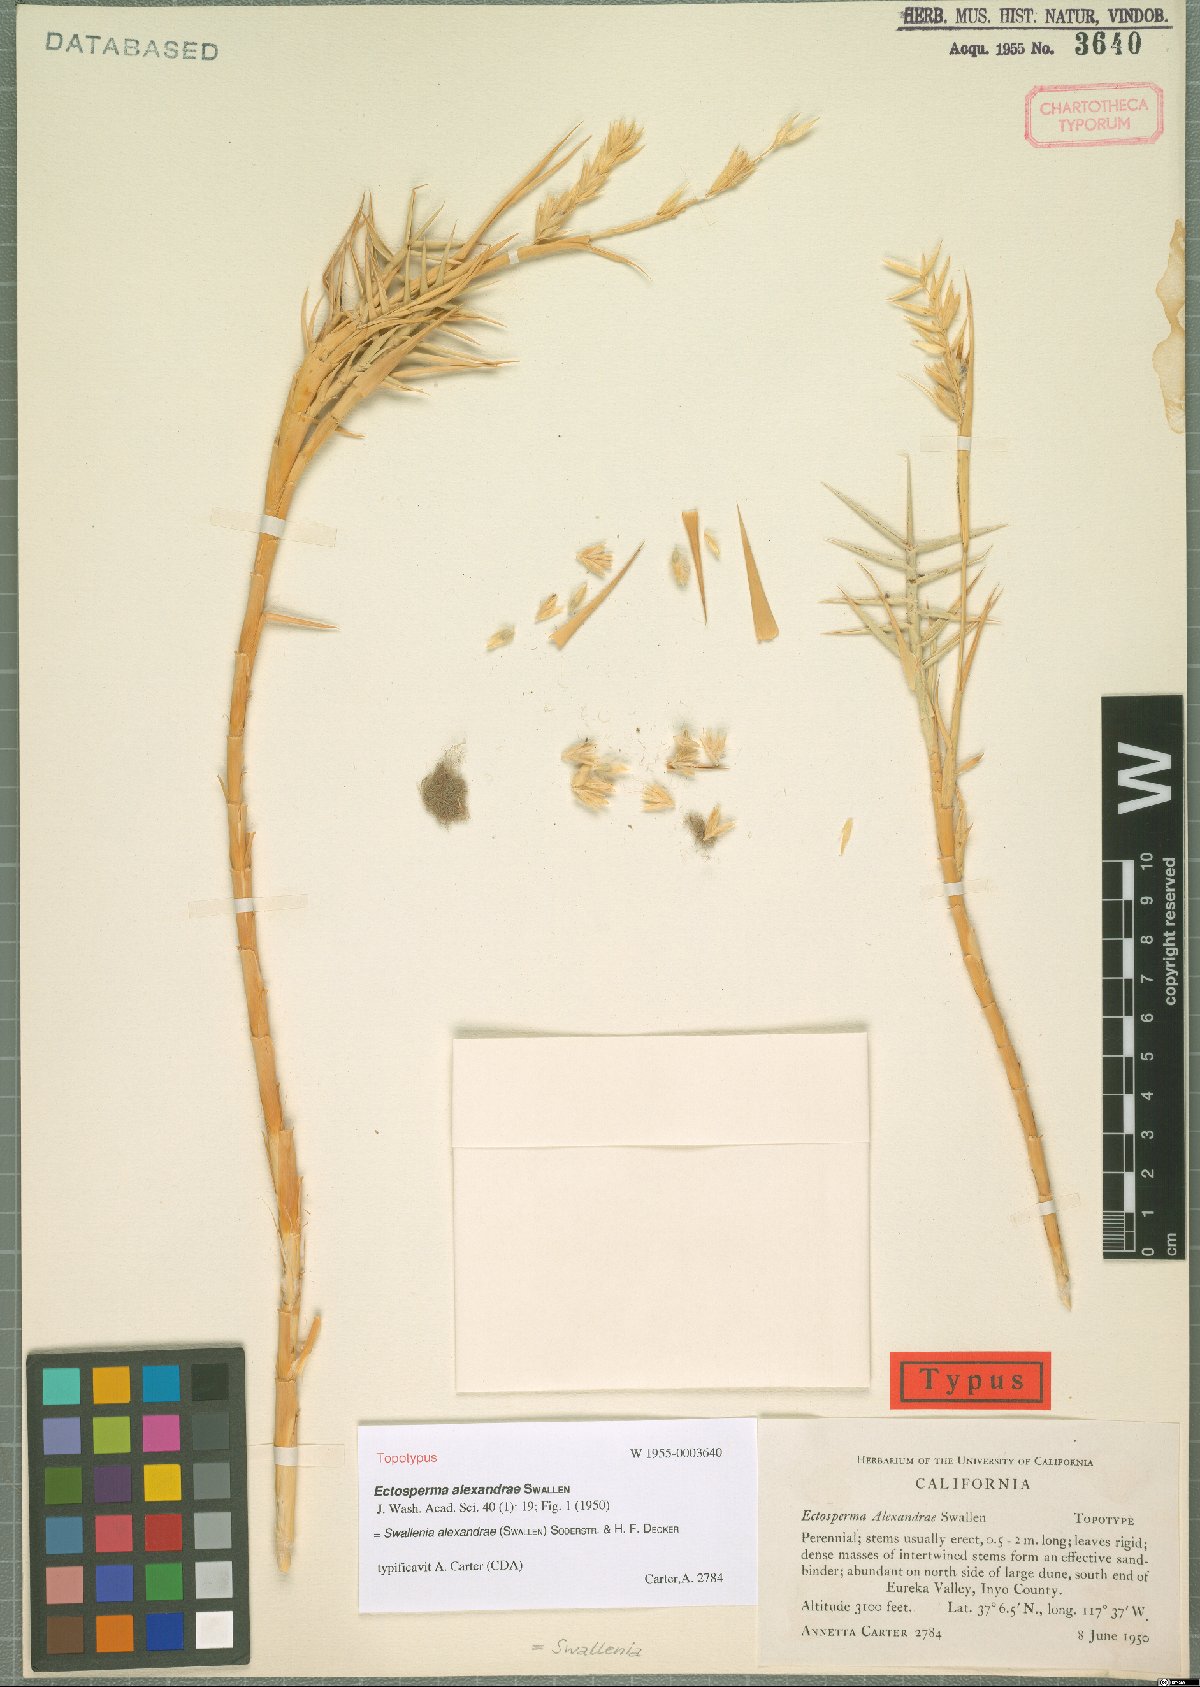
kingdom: Plantae
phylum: Tracheophyta
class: Liliopsida
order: Poales
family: Poaceae
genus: Swallenia
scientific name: Swallenia alexandrae
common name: Eureka dune grass
